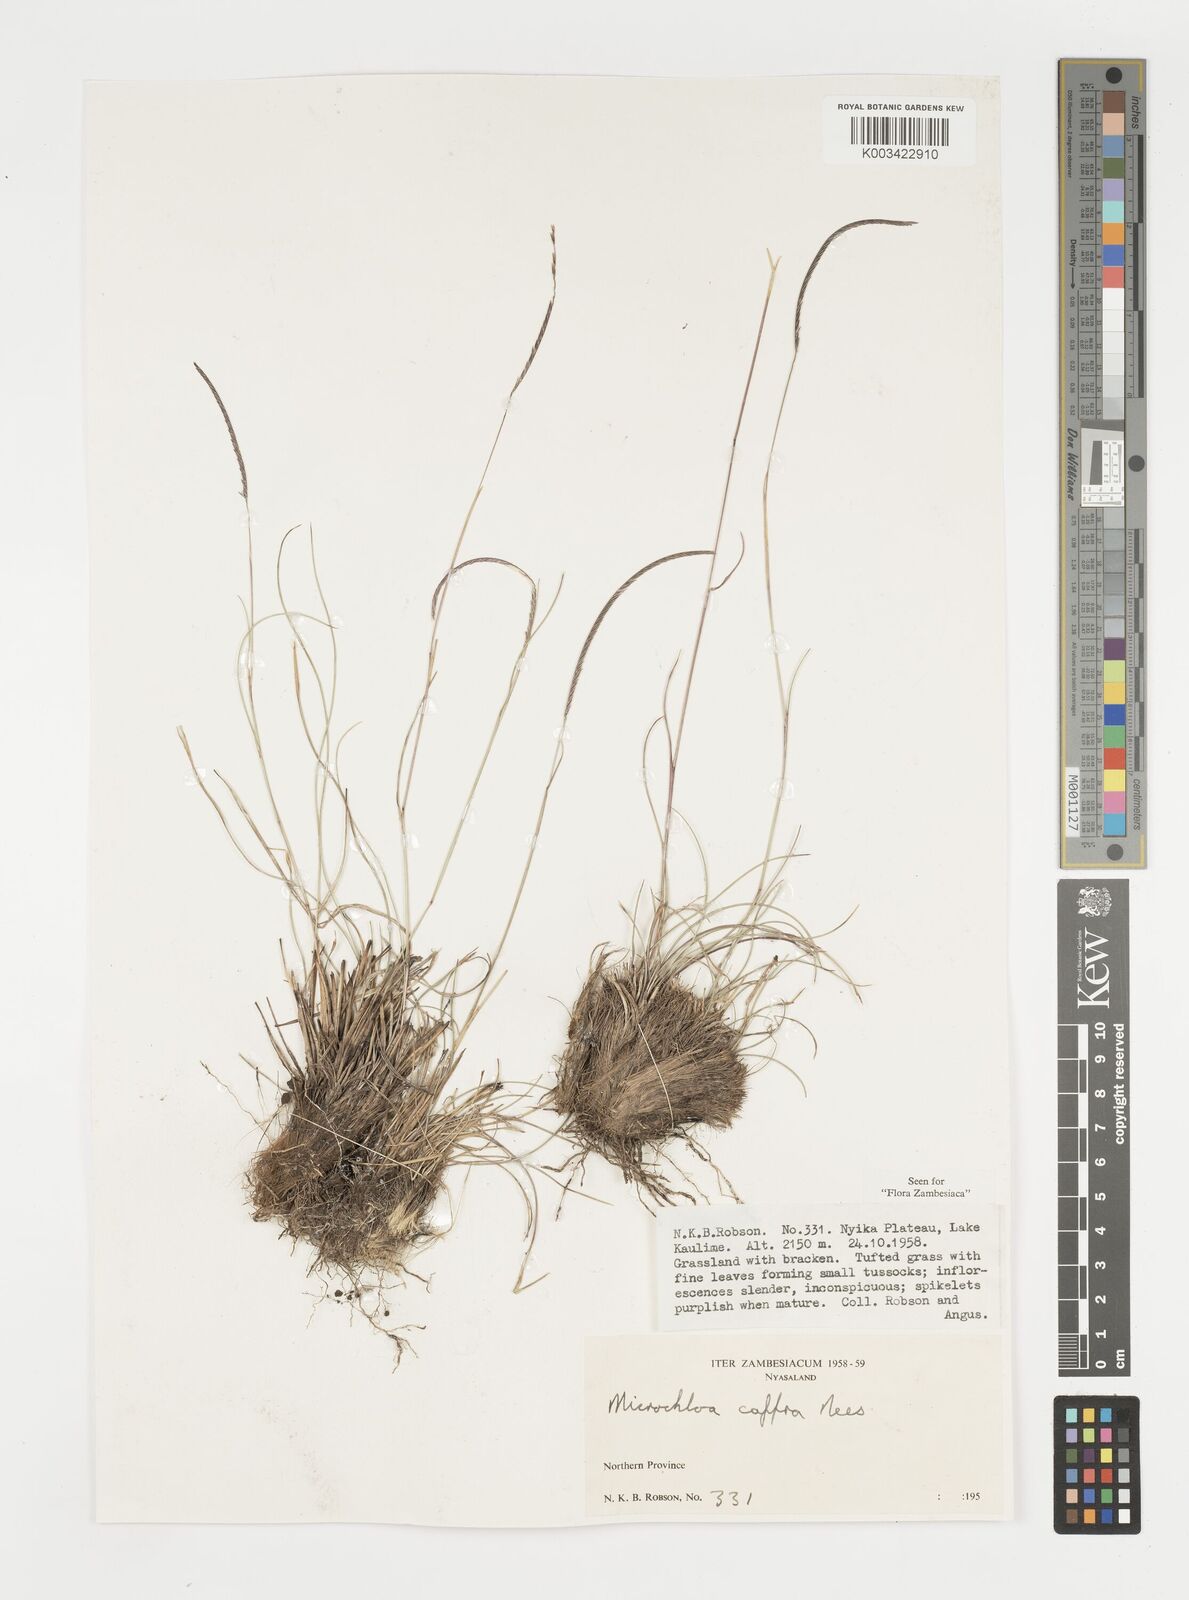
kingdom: Plantae
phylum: Tracheophyta
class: Liliopsida
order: Poales
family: Poaceae
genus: Microchloa
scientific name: Microchloa caffra
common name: Pincushion grass
